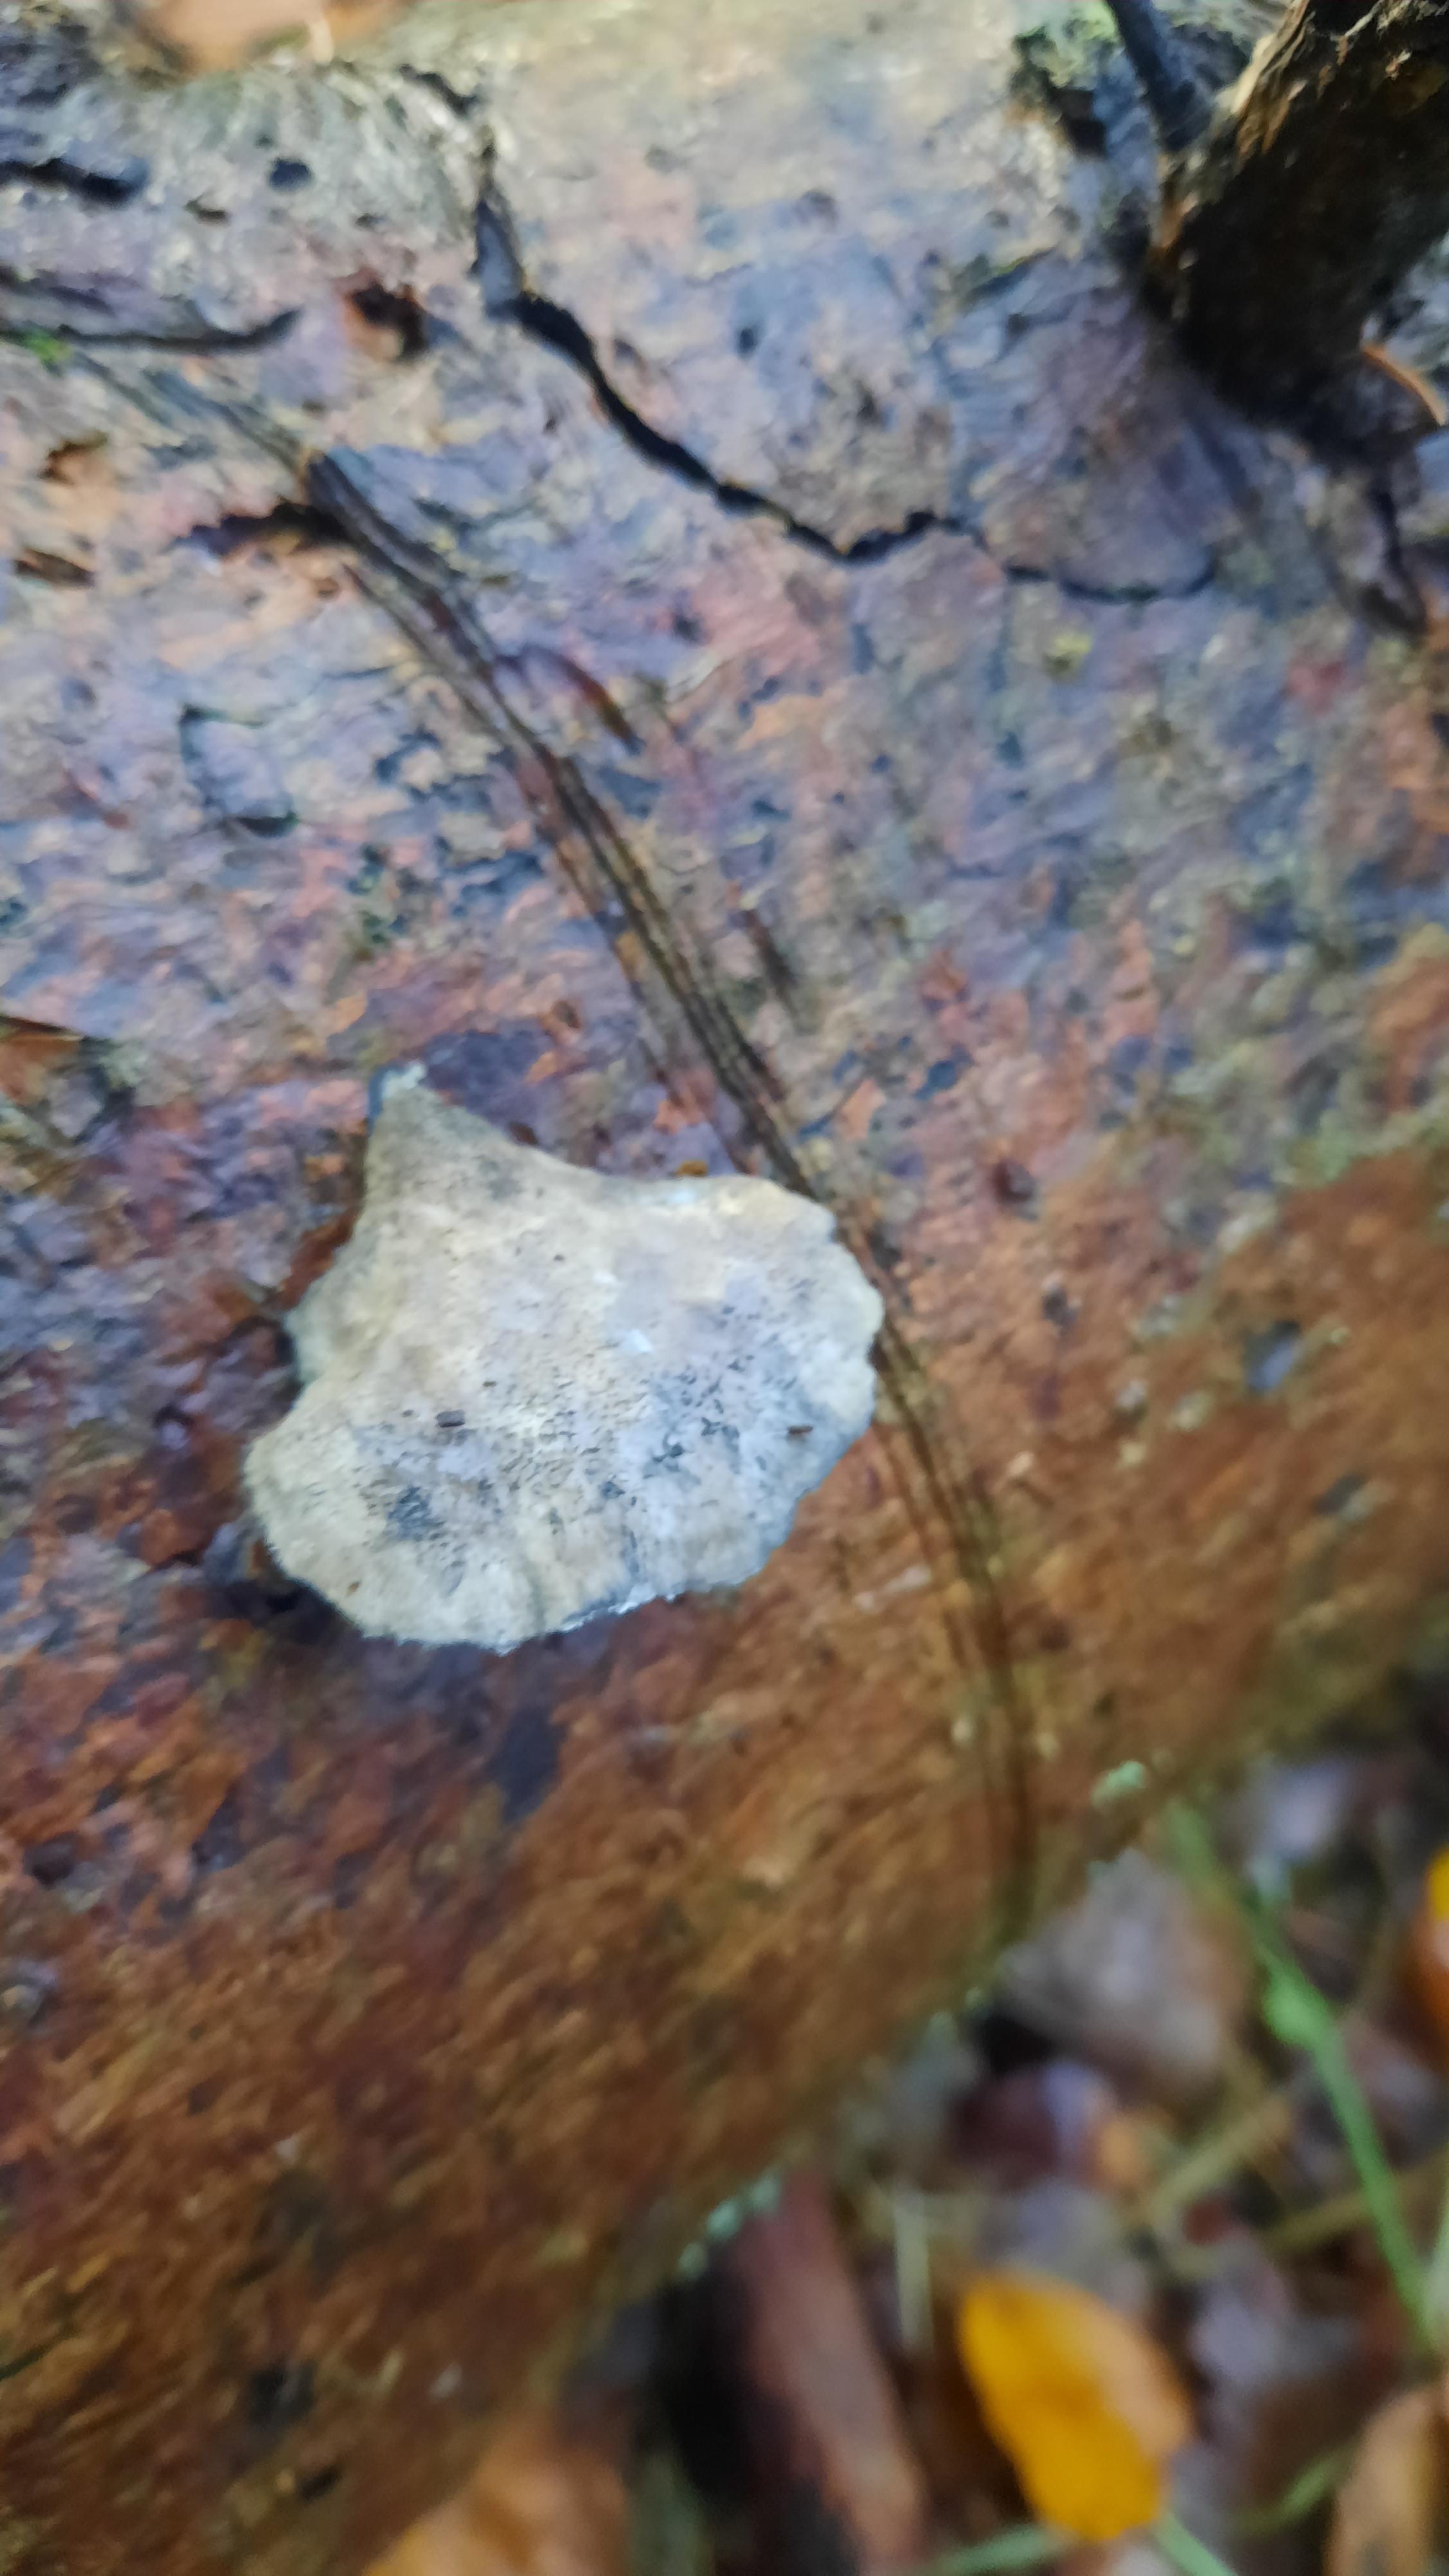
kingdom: Fungi
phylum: Basidiomycota
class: Agaricomycetes
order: Polyporales
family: Polyporaceae
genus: Cyanosporus
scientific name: Cyanosporus caesius
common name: blålig kødporesvamp
